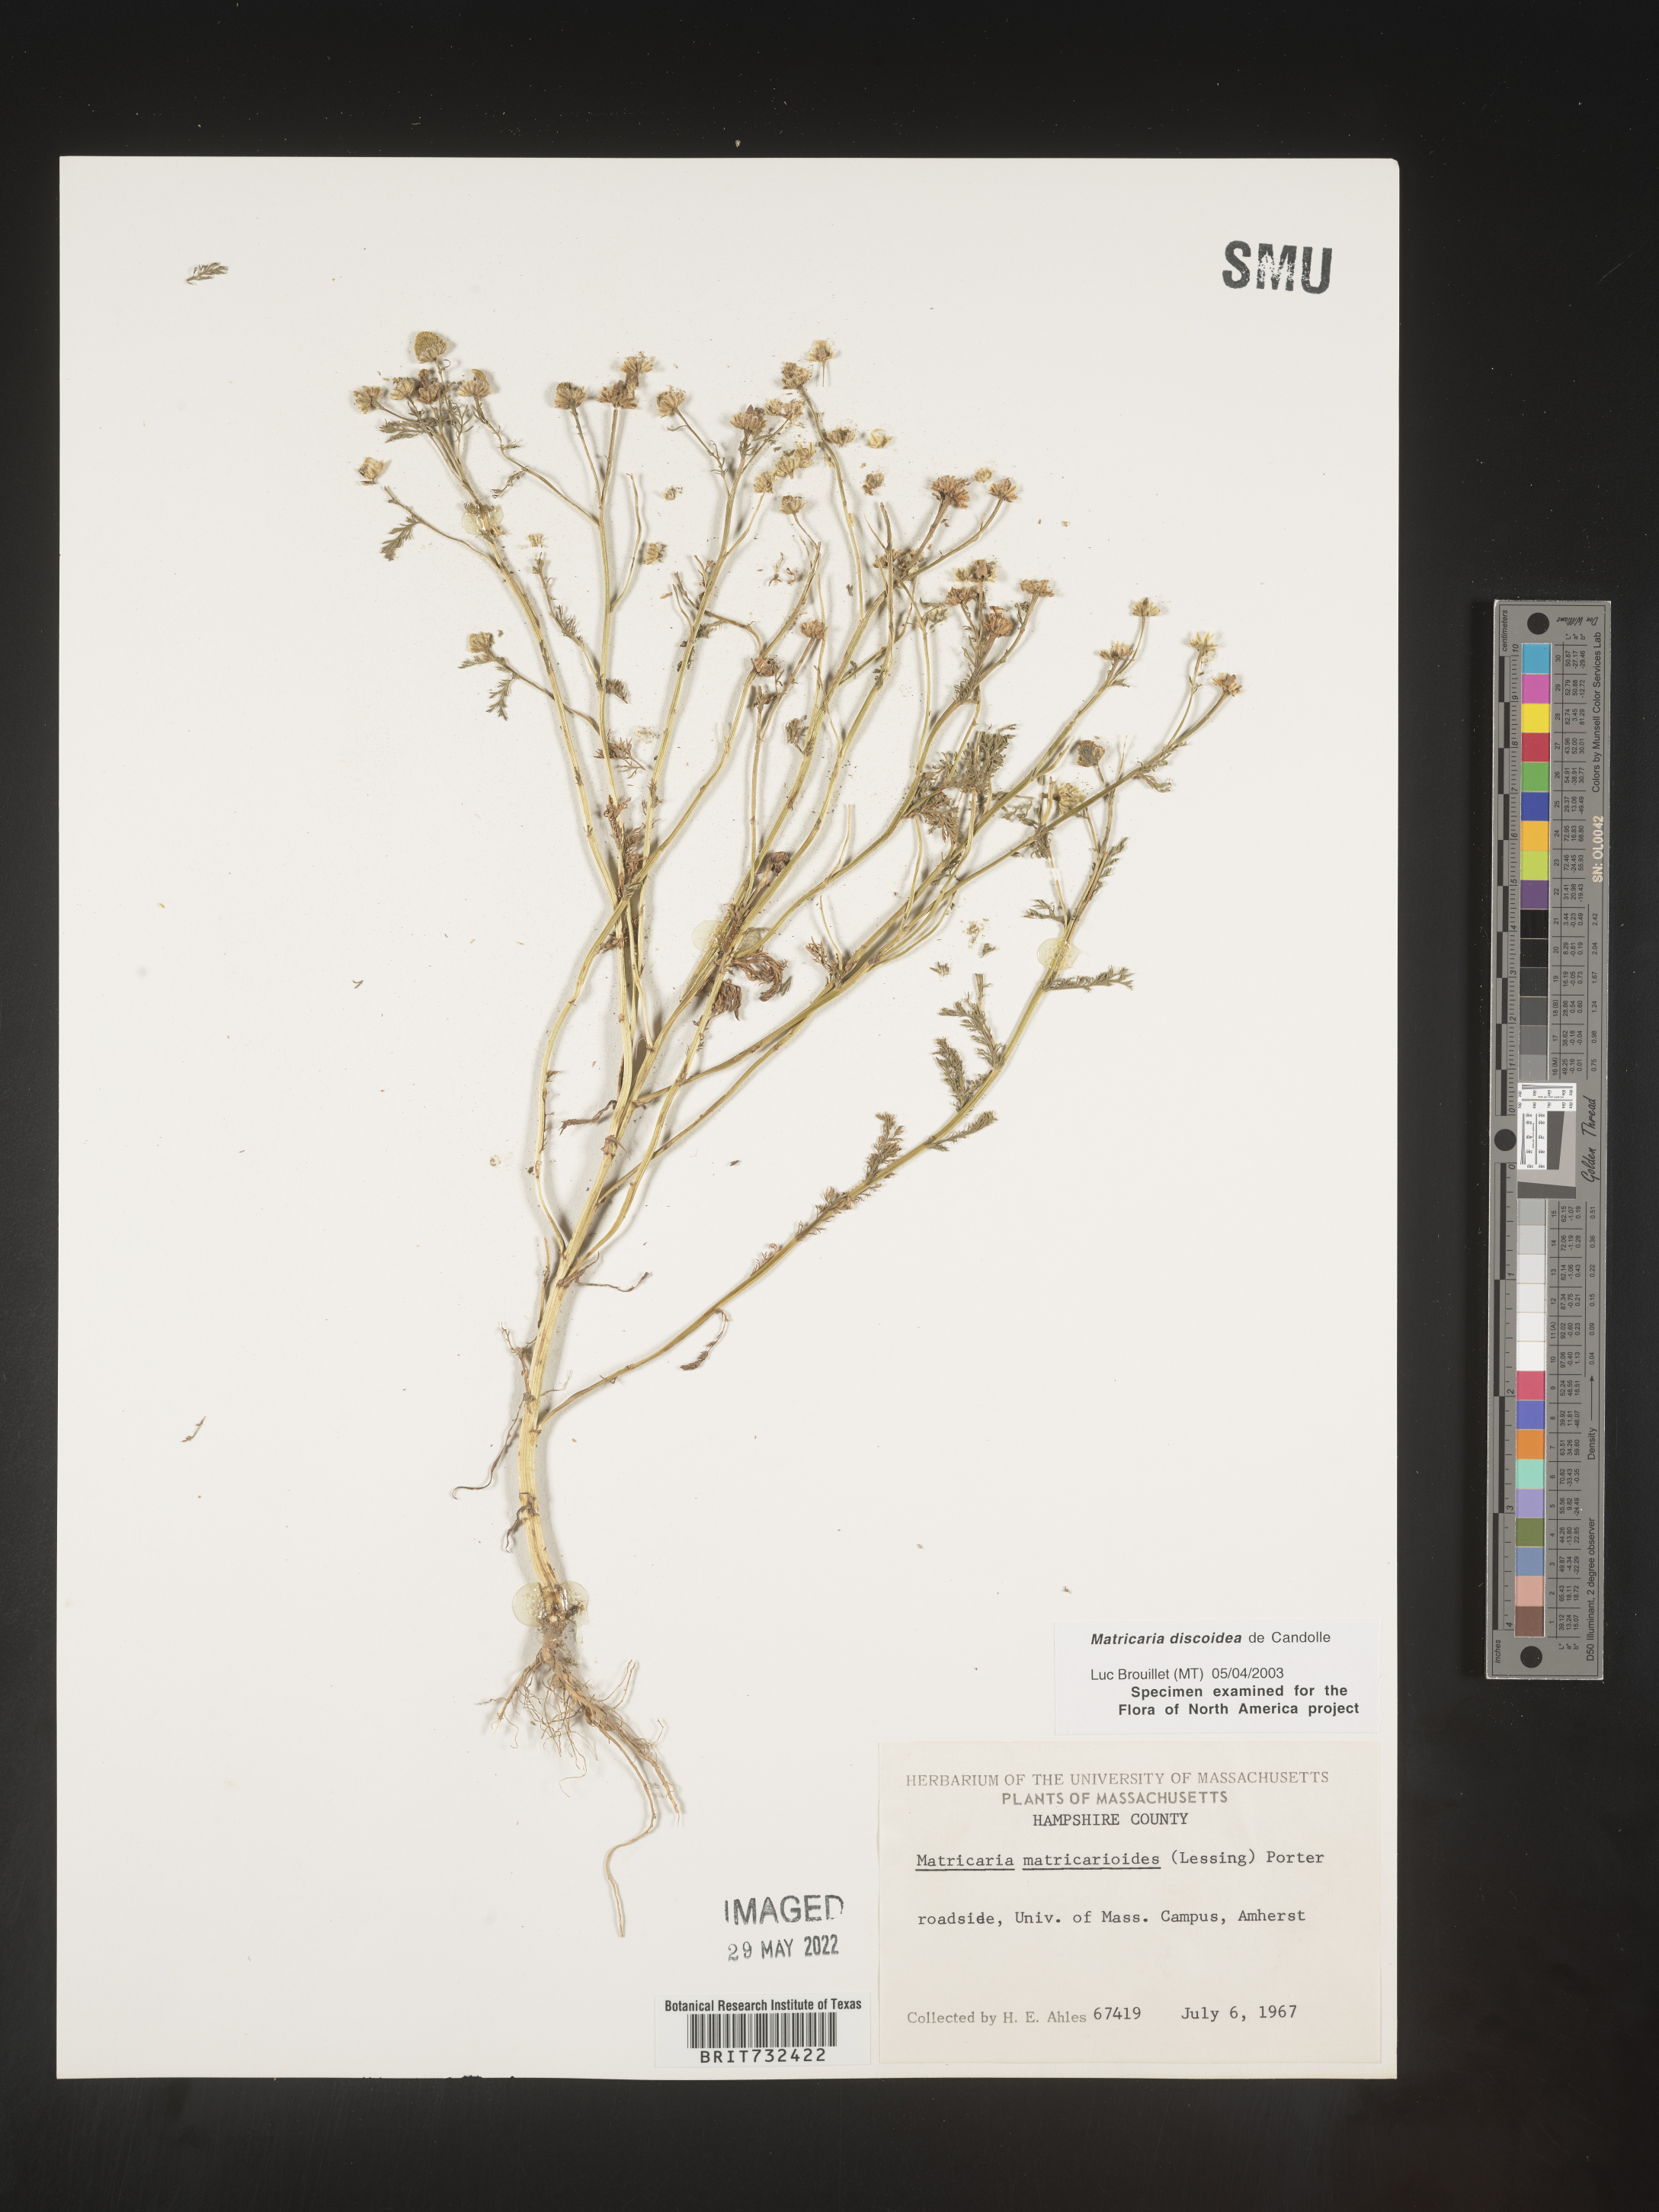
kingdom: Plantae
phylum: Tracheophyta
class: Magnoliopsida
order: Asterales
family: Asteraceae
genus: Matricaria
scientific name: Matricaria discoidea
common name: Disc mayweed
